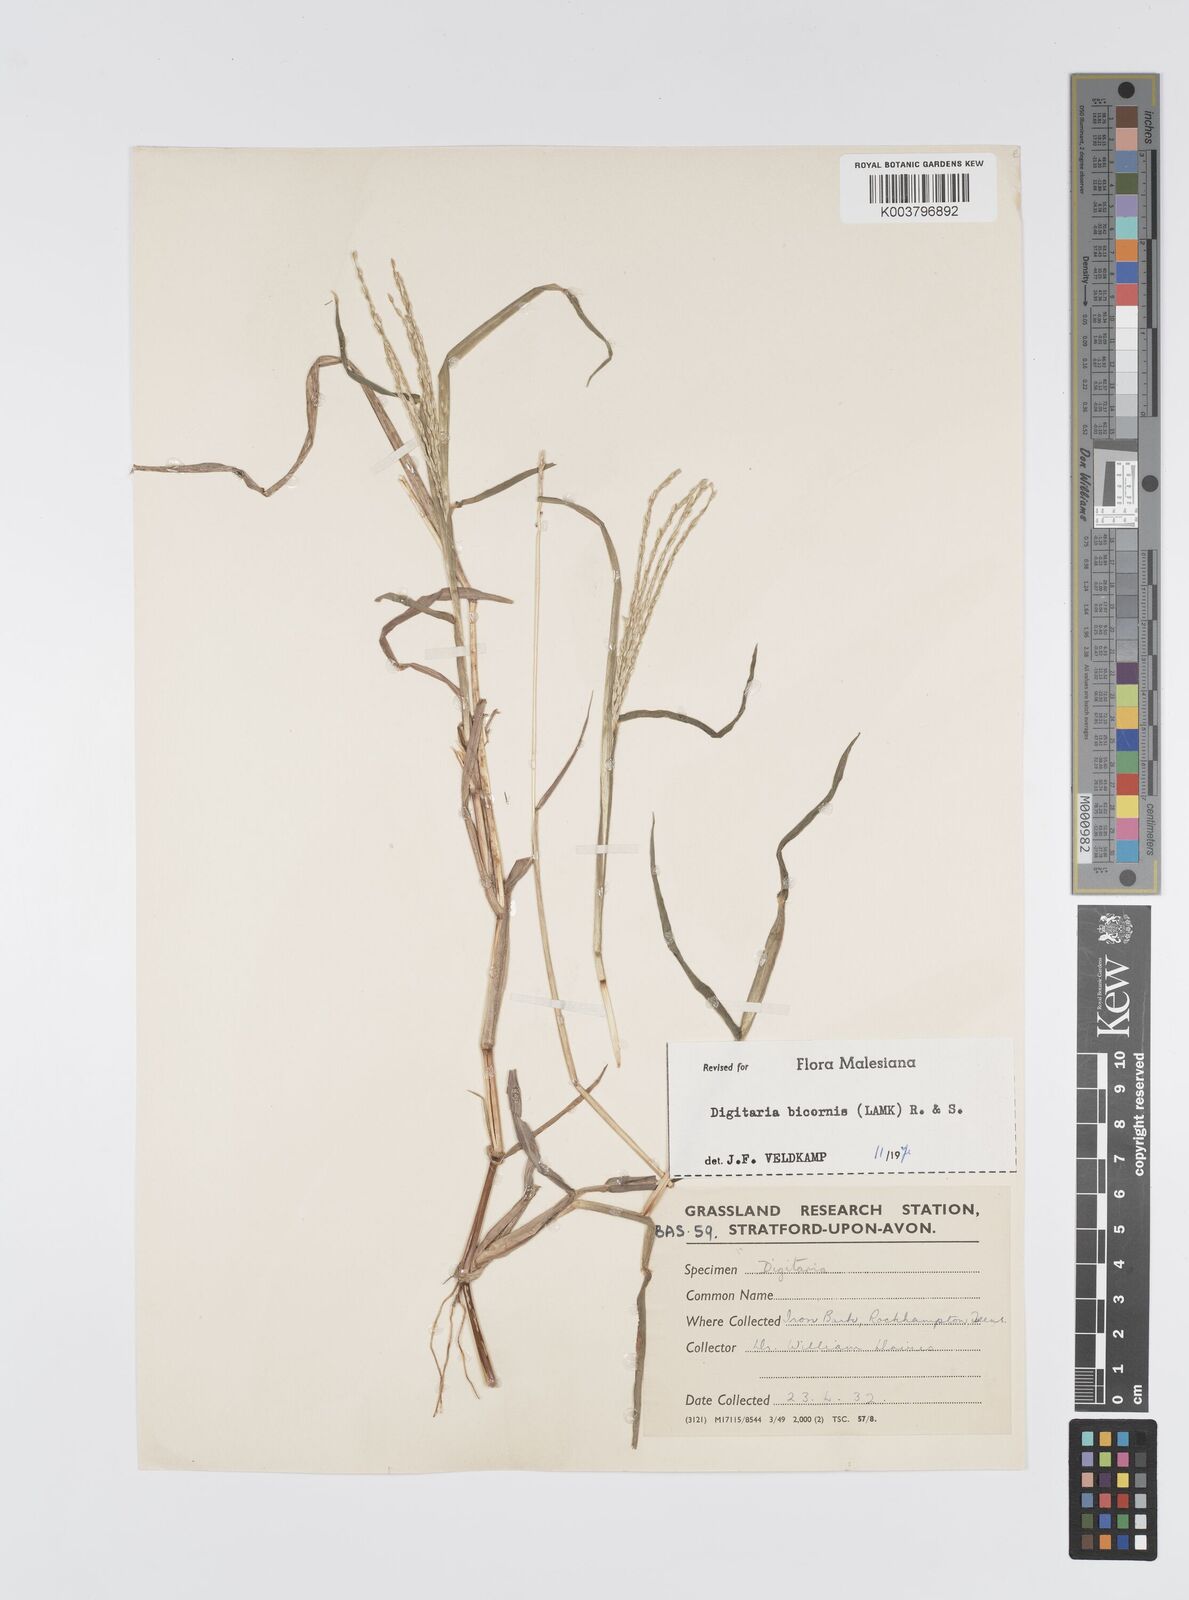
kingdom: Plantae
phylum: Tracheophyta
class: Liliopsida
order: Poales
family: Poaceae
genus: Digitaria
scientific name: Digitaria bicornis
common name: Asian crabgrass
